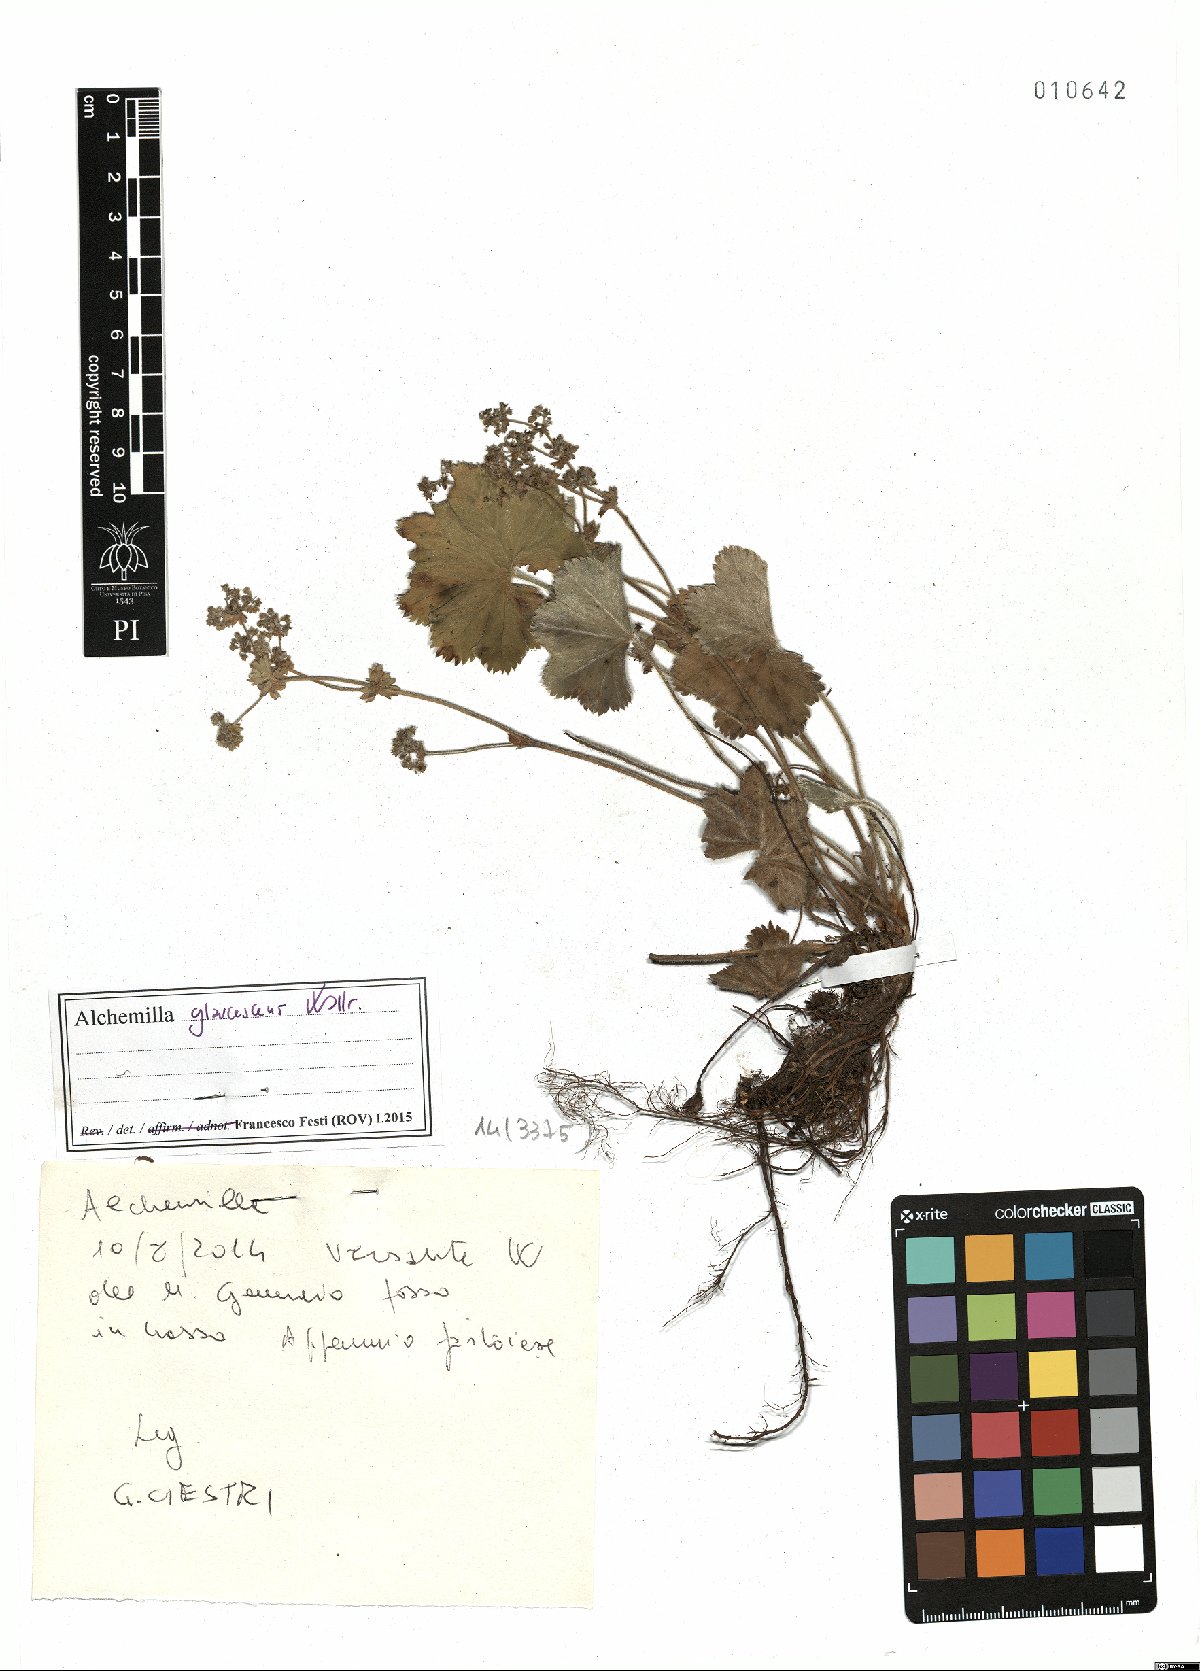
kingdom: Plantae
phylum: Tracheophyta
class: Magnoliopsida
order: Rosales
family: Rosaceae
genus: Alchemilla
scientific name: Alchemilla glaucescens
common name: Silky lady's mantle
